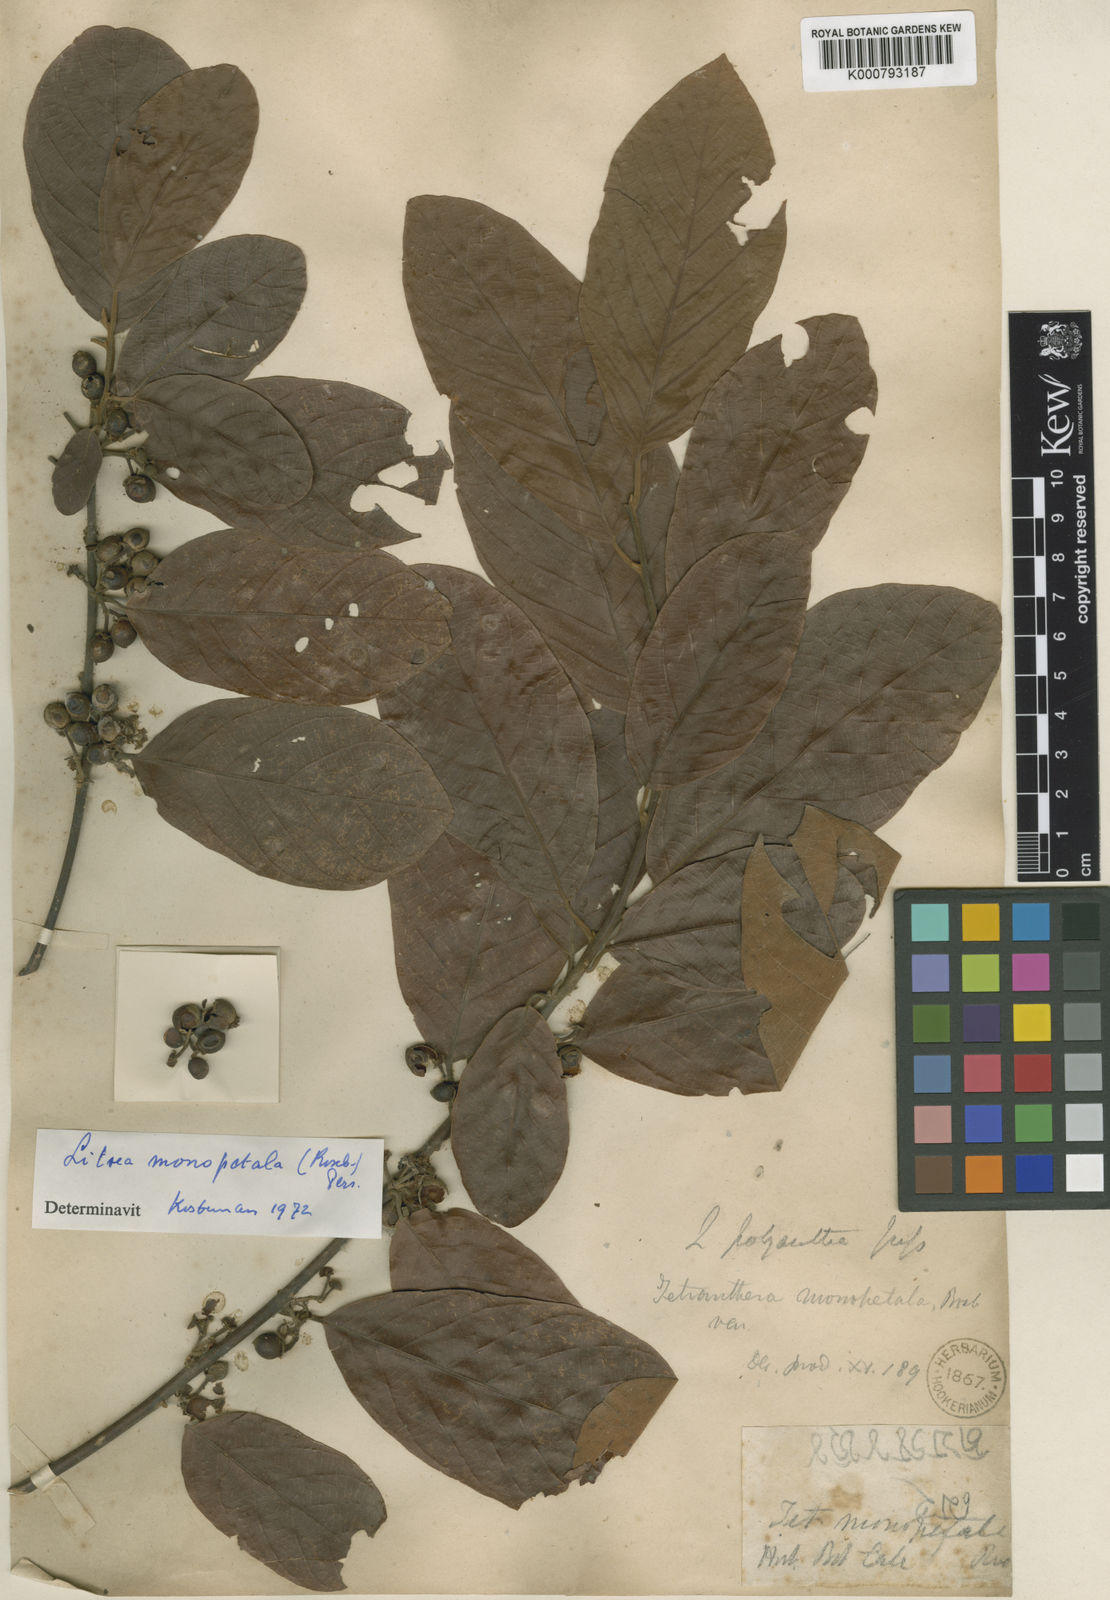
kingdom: Plantae
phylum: Tracheophyta
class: Magnoliopsida
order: Laurales
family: Lauraceae
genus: Litsea
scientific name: Litsea monopetala
